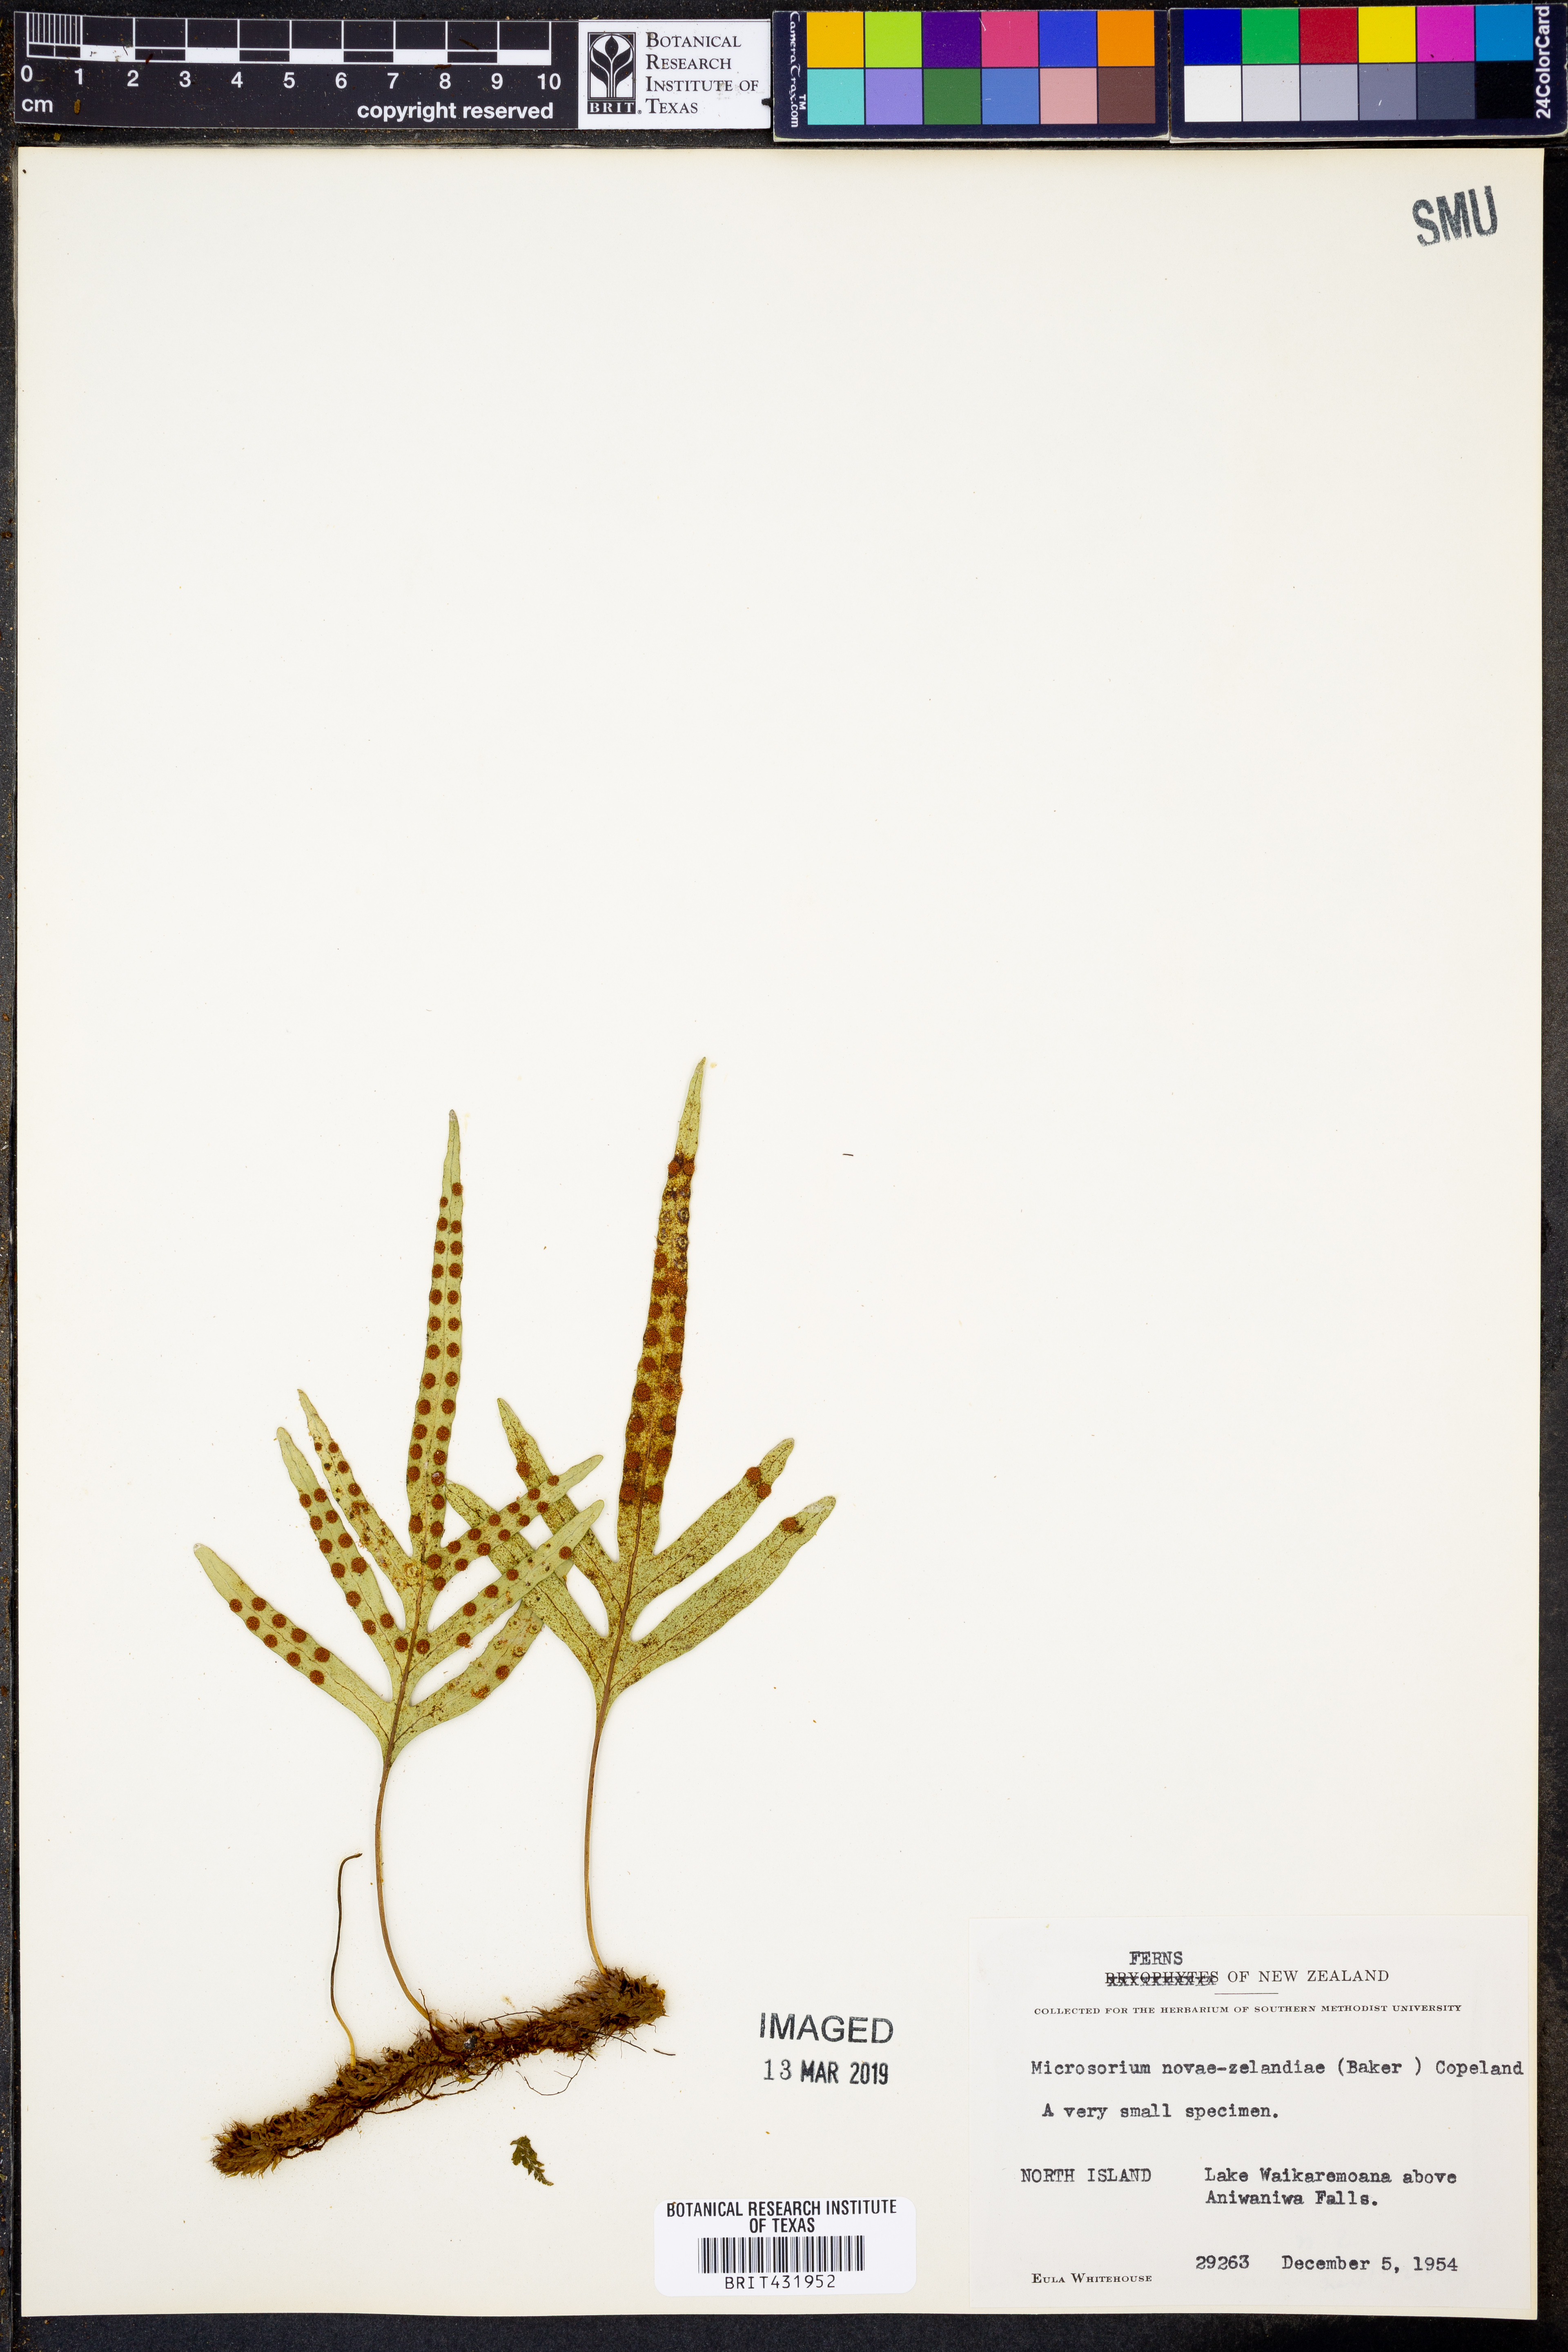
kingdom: Plantae
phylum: Tracheophyta
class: Polypodiopsida
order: Polypodiales
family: Polypodiaceae
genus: Lecanopteris
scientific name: Lecanopteris novae-zealandiae
